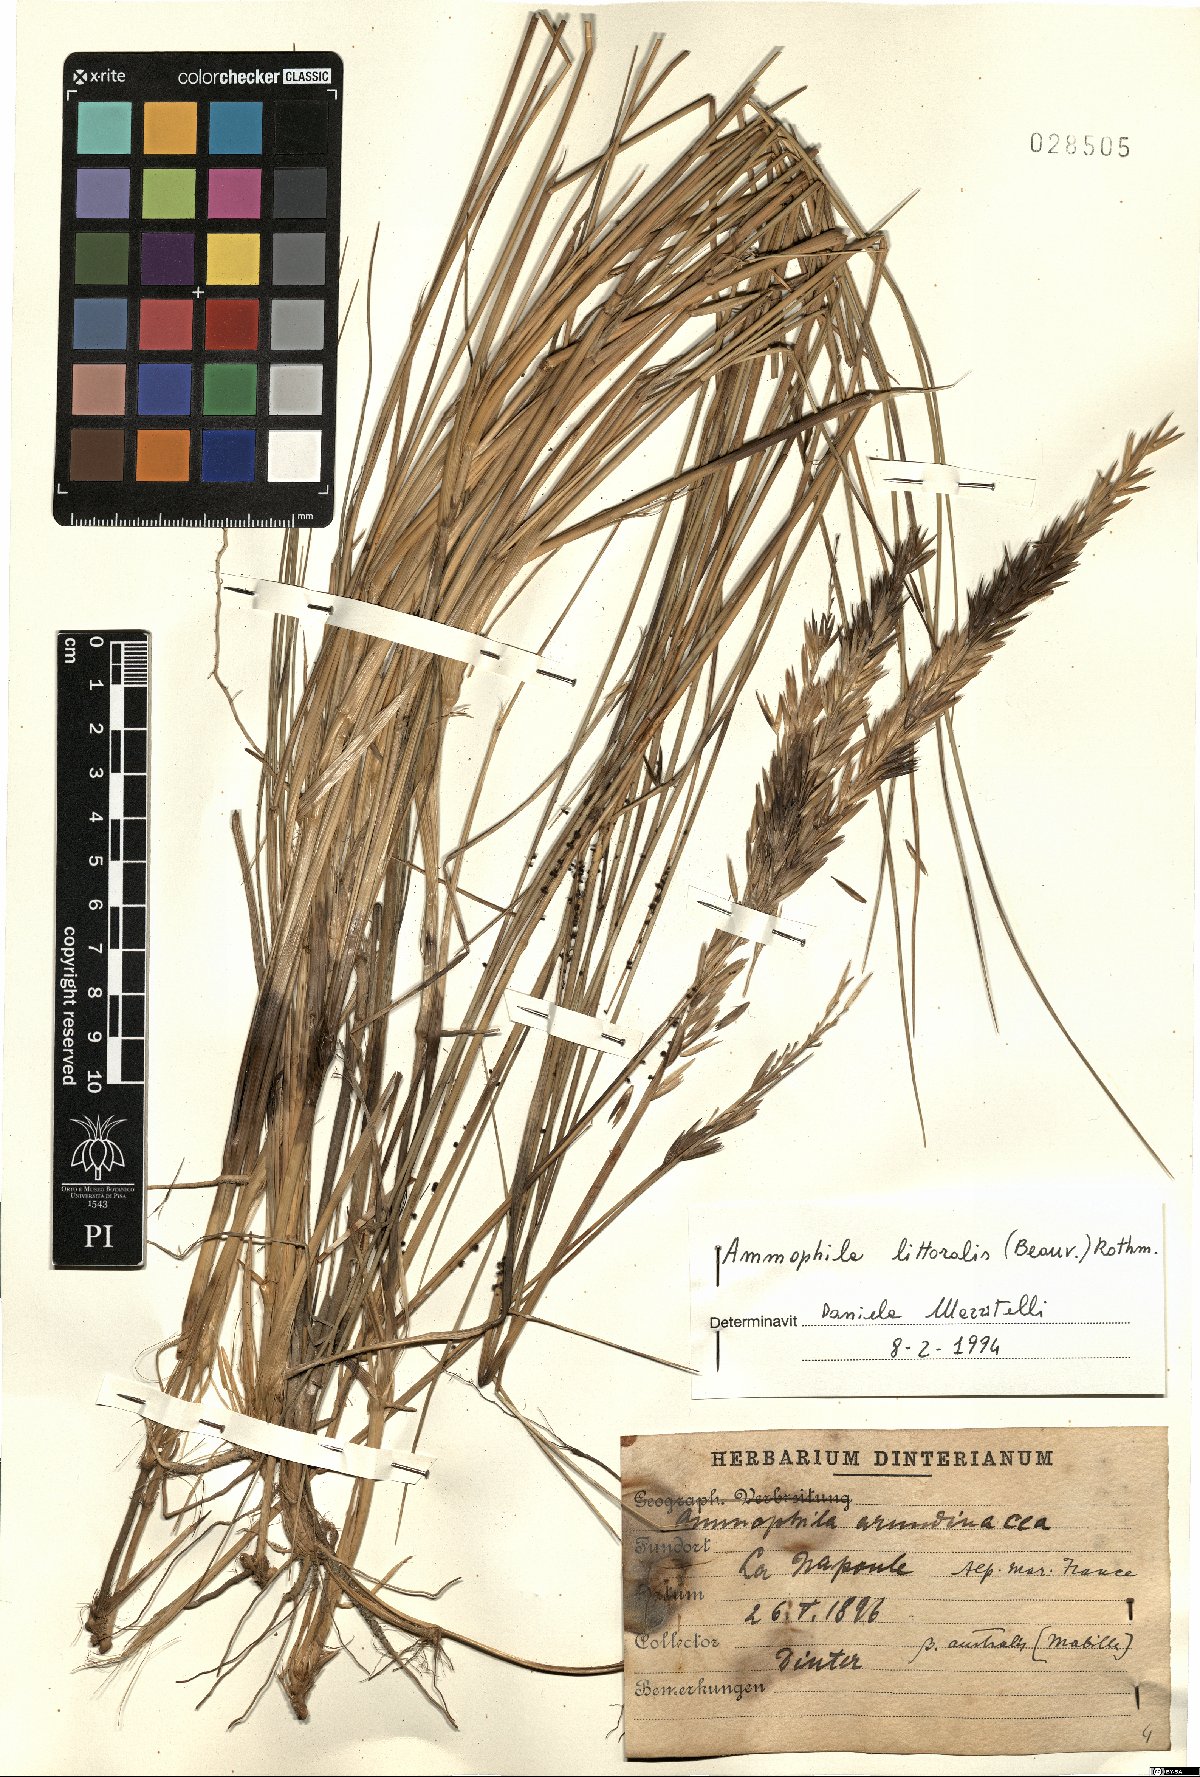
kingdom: Plantae
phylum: Tracheophyta
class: Liliopsida
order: Poales
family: Poaceae
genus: Calamagrostis
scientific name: Calamagrostis arenaria
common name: European beachgrass
